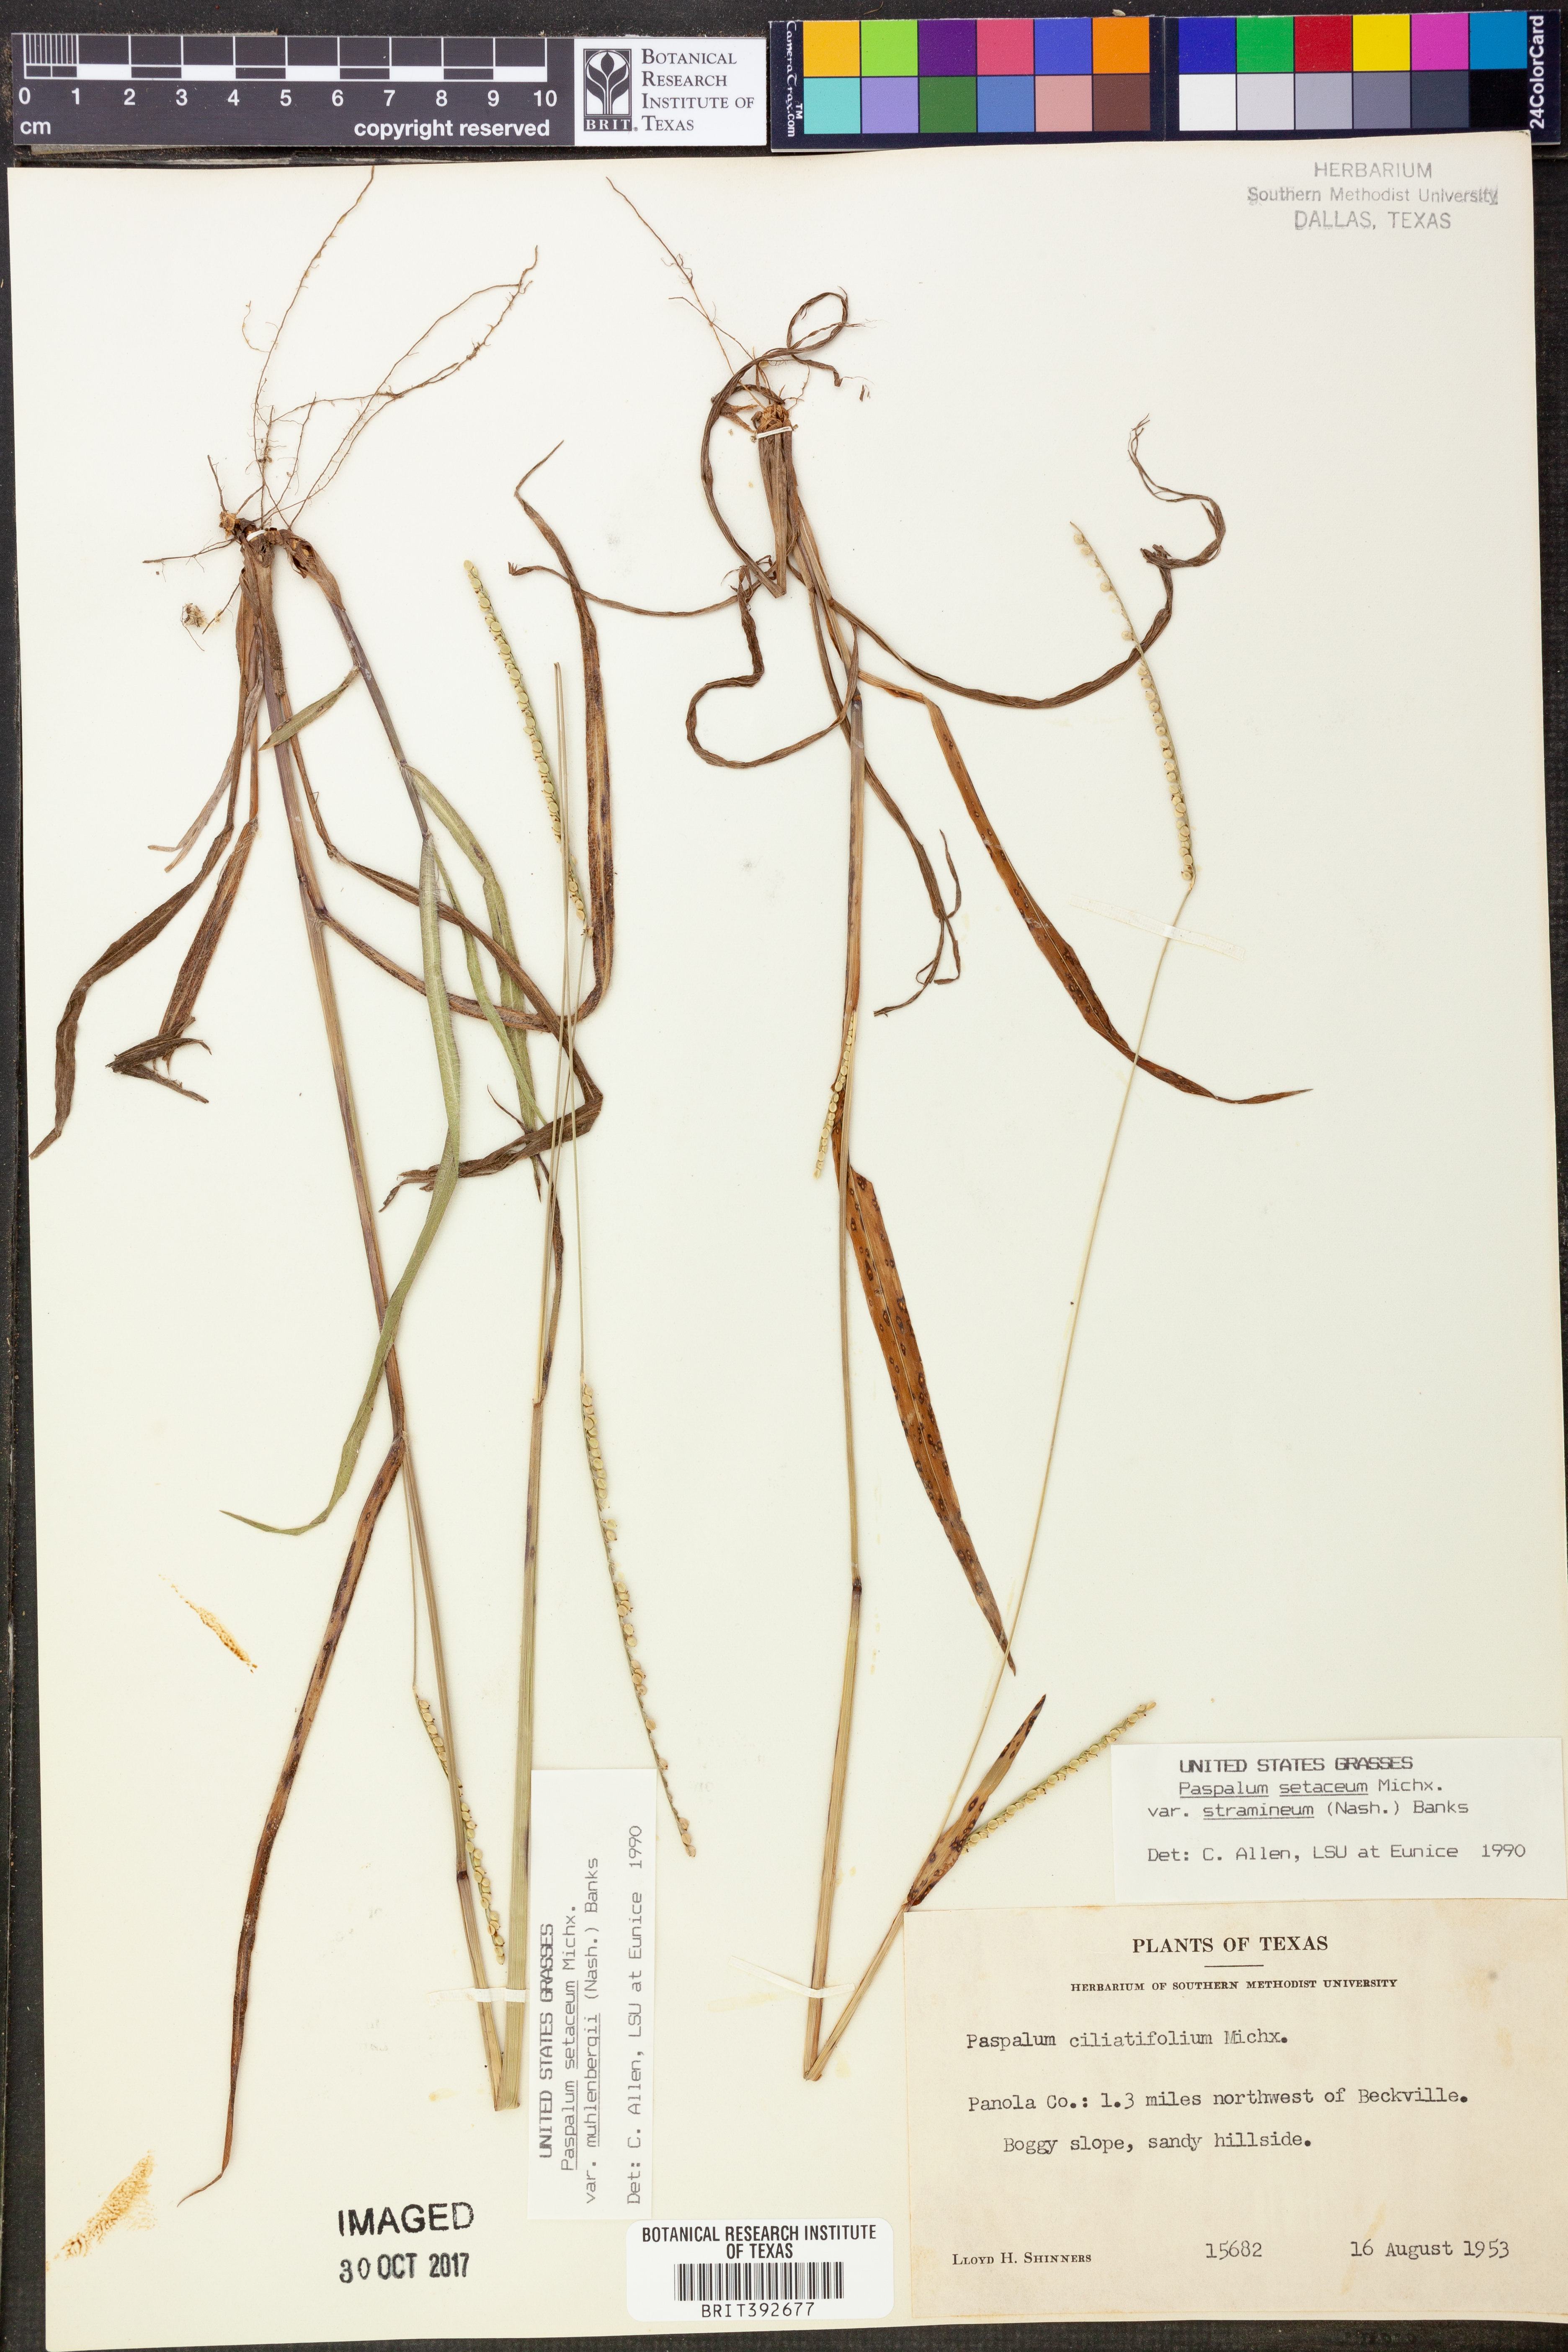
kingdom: Plantae
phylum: Tracheophyta
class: Liliopsida
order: Poales
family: Poaceae
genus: Paspalum
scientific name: Paspalum setaceum
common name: Slender paspalum
